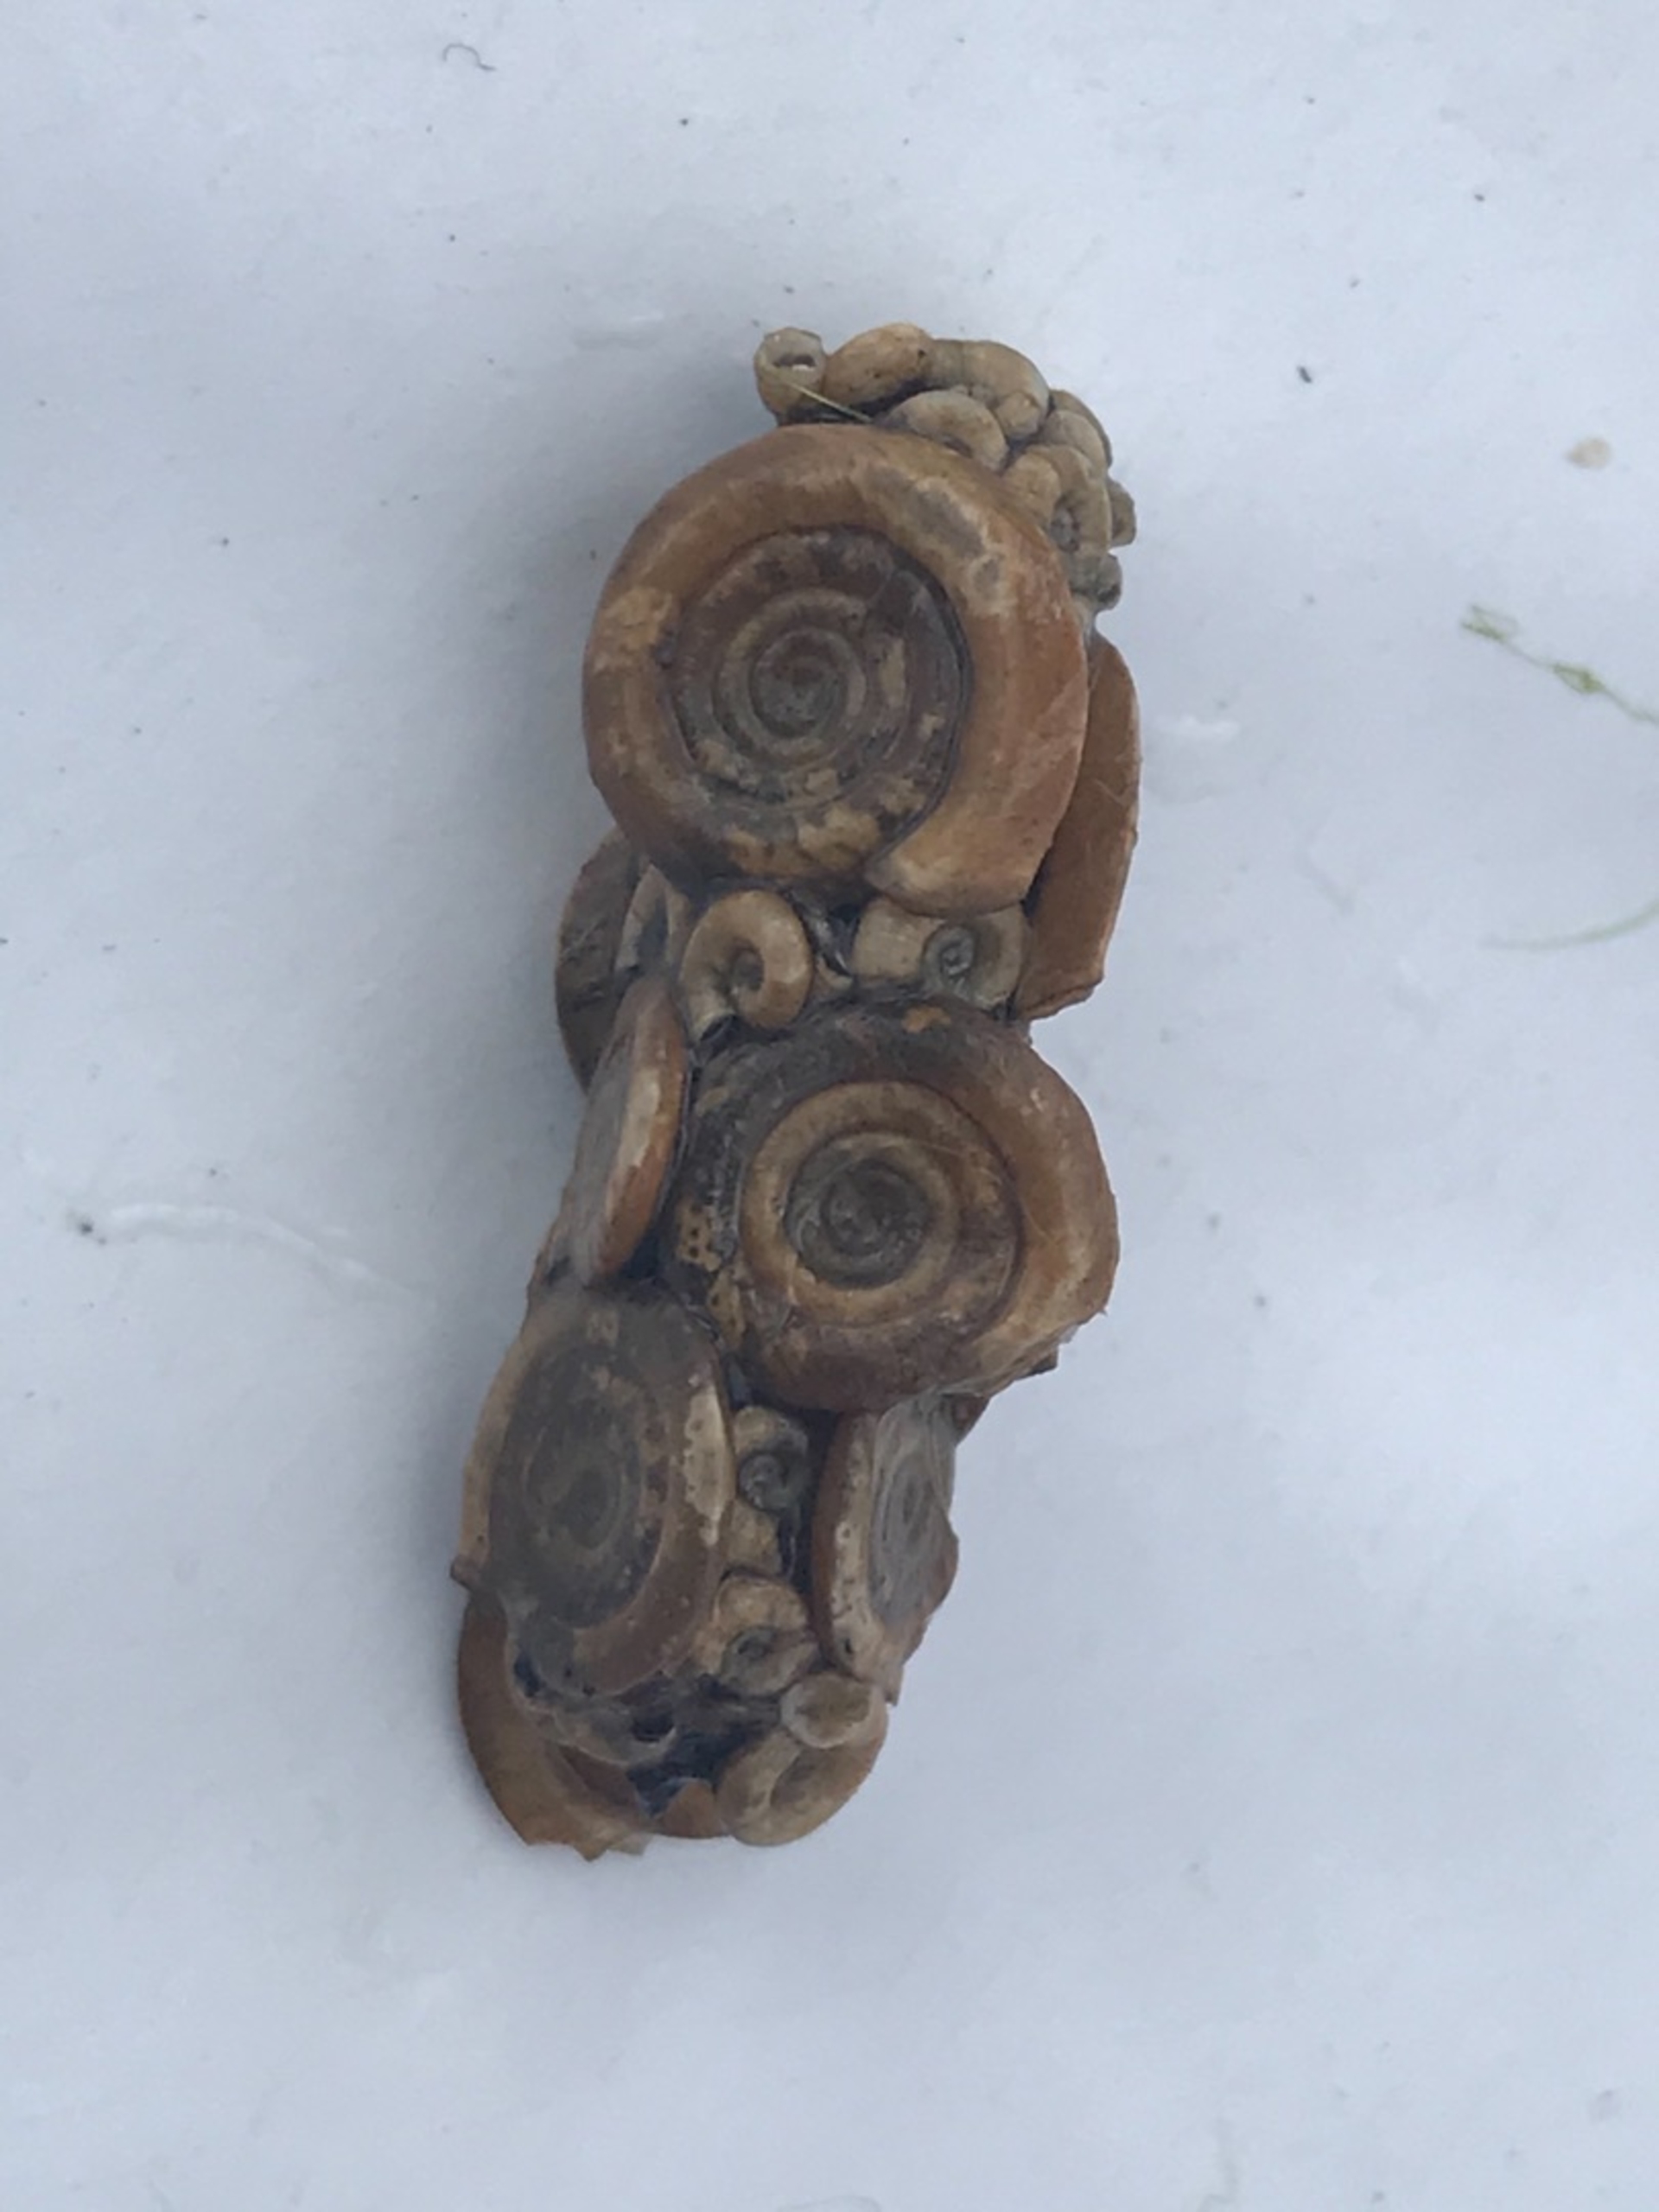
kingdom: Animalia
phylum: Arthropoda
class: Insecta
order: Trichoptera
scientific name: Trichoptera
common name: Vårfluer
